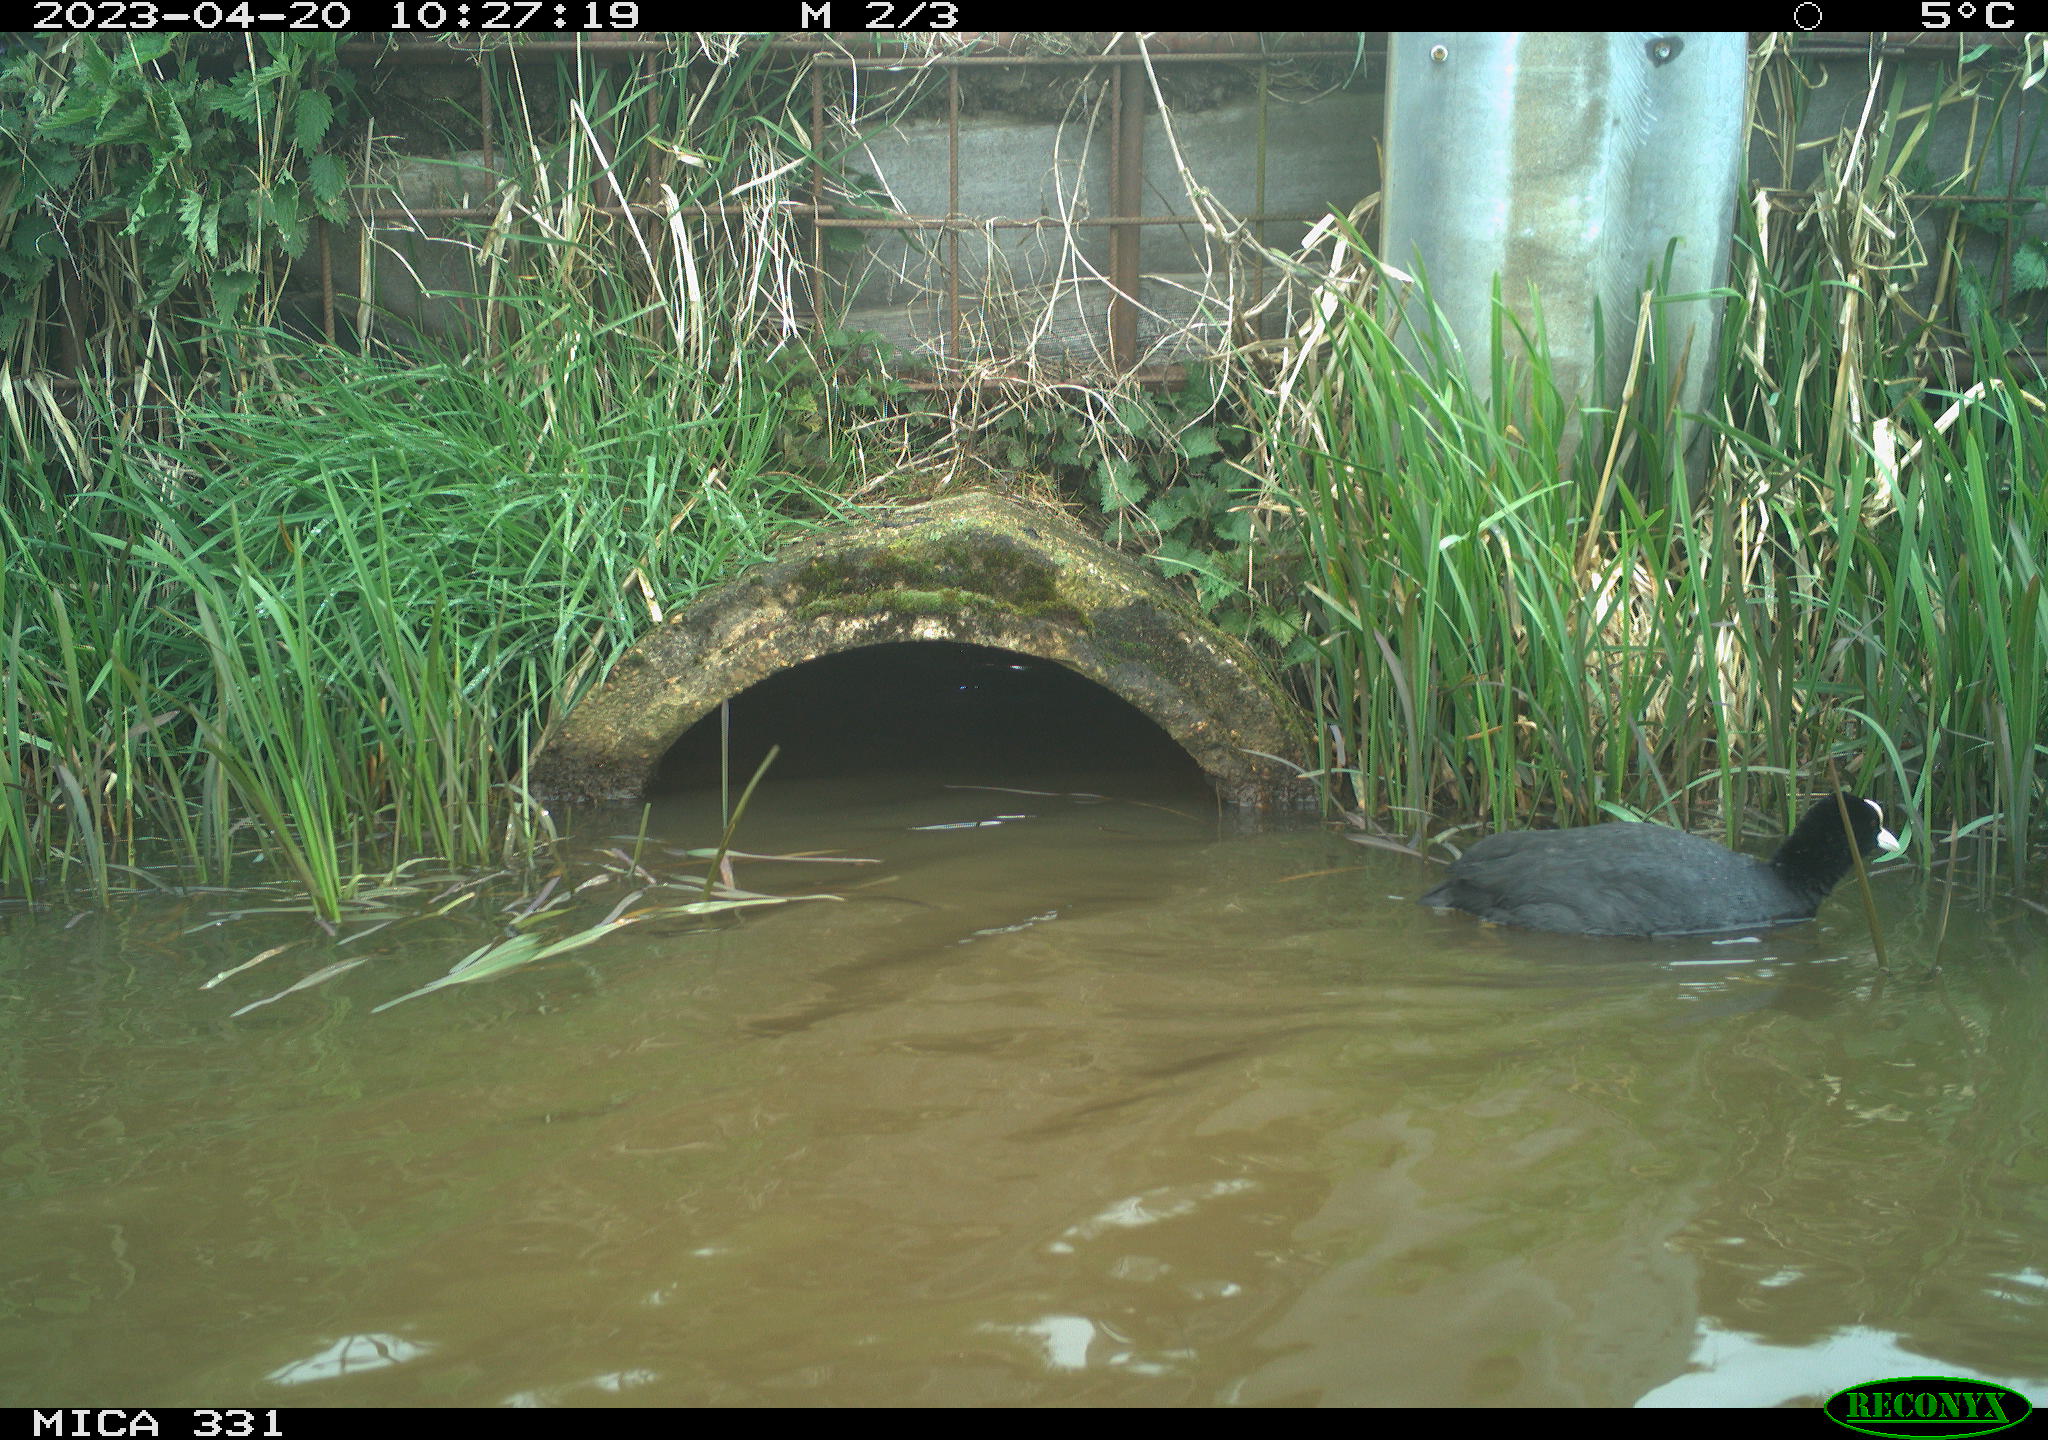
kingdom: Animalia
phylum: Chordata
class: Aves
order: Gruiformes
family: Rallidae
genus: Fulica
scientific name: Fulica atra
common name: Eurasian coot
